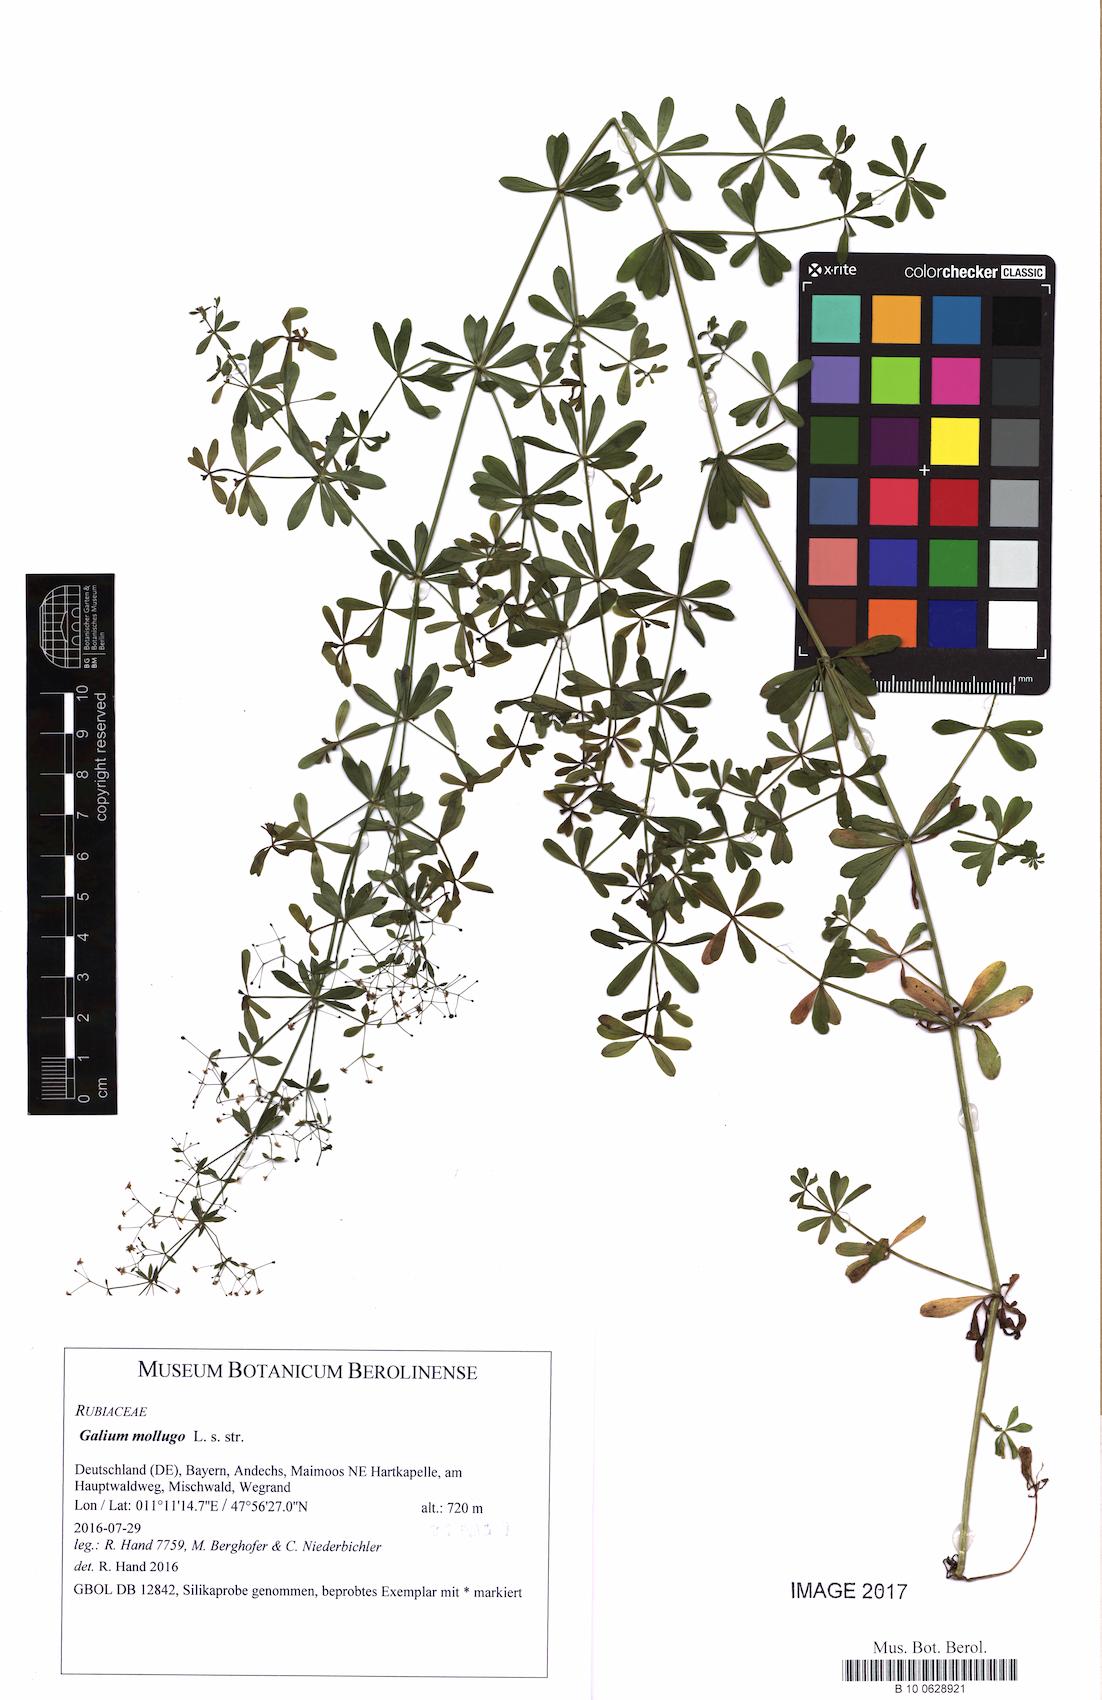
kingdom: Plantae
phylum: Tracheophyta
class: Magnoliopsida
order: Gentianales
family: Rubiaceae
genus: Galium
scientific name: Galium mollugo
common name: Hedge bedstraw
